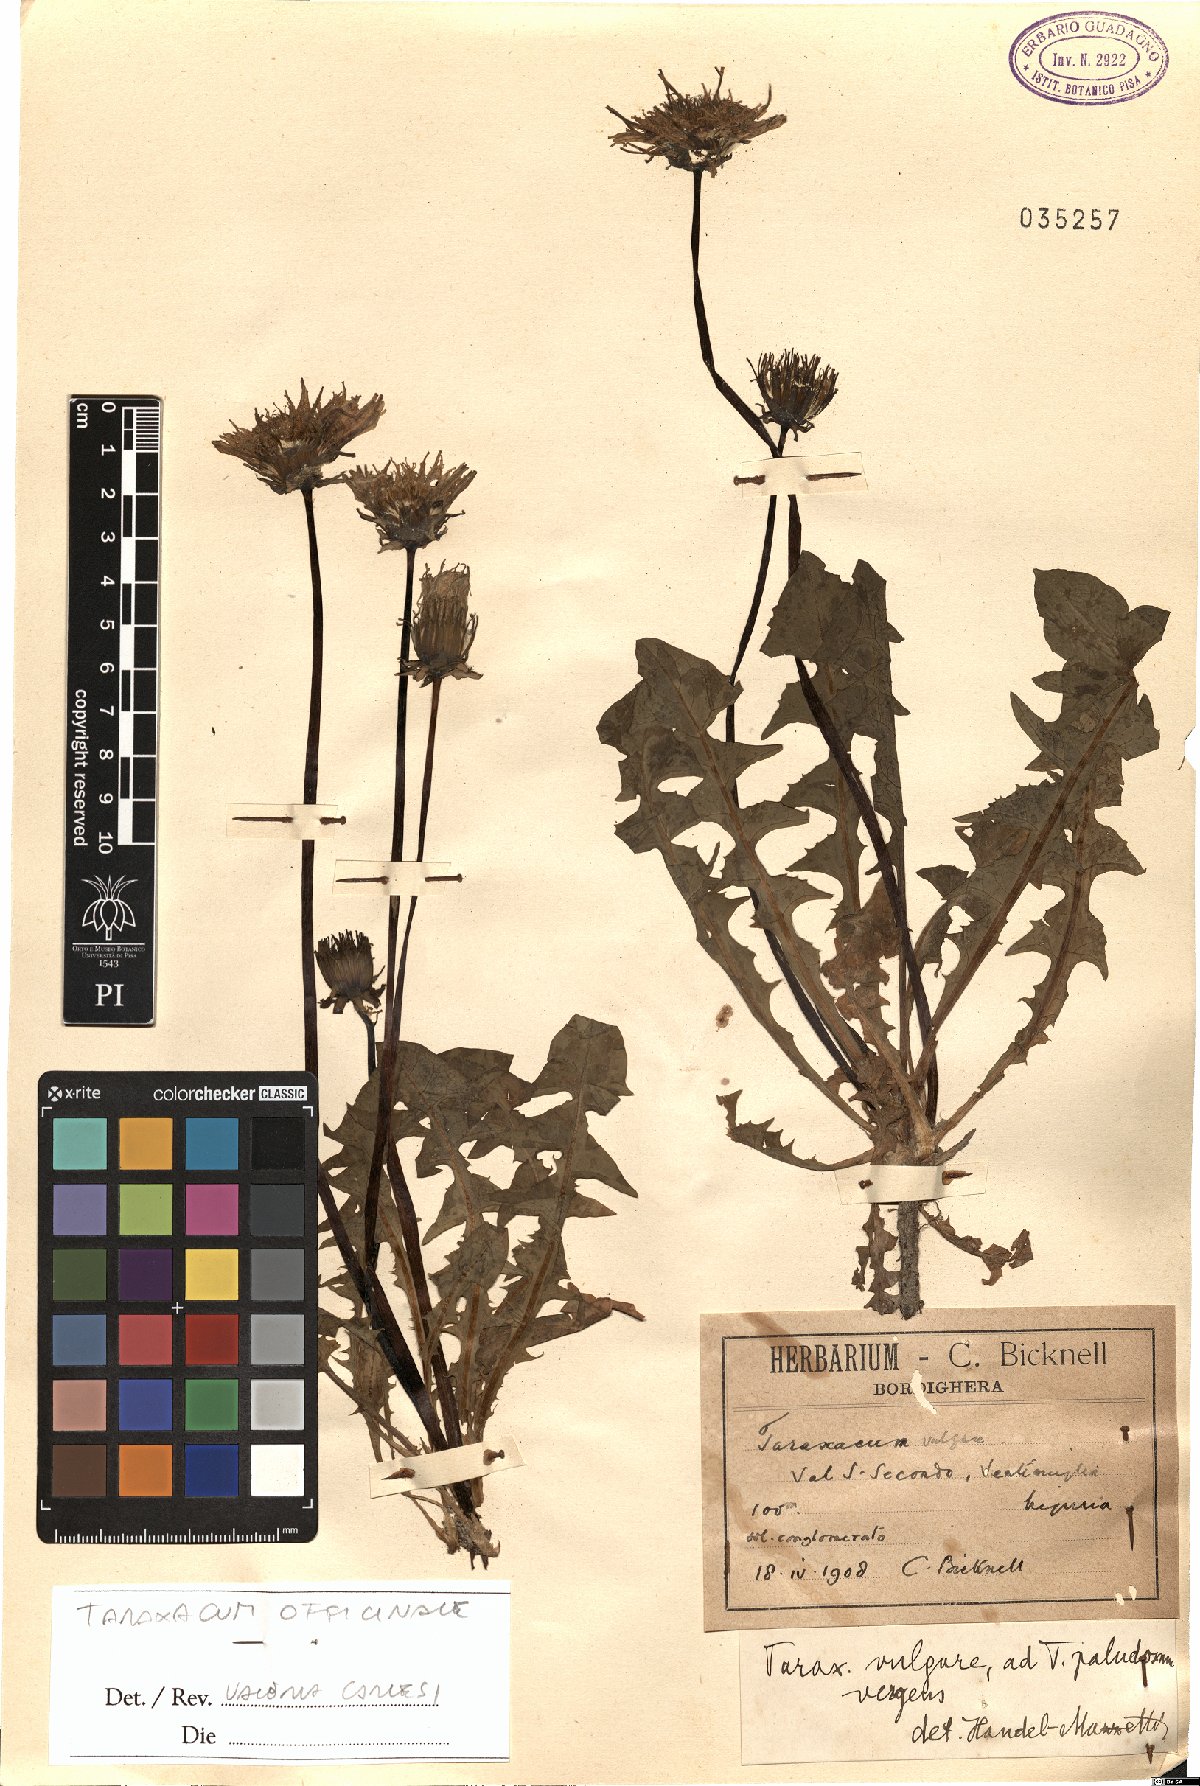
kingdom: Plantae
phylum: Tracheophyta
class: Magnoliopsida
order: Asterales
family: Asteraceae
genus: Taraxacum
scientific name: Taraxacum officinale
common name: Common dandelion
